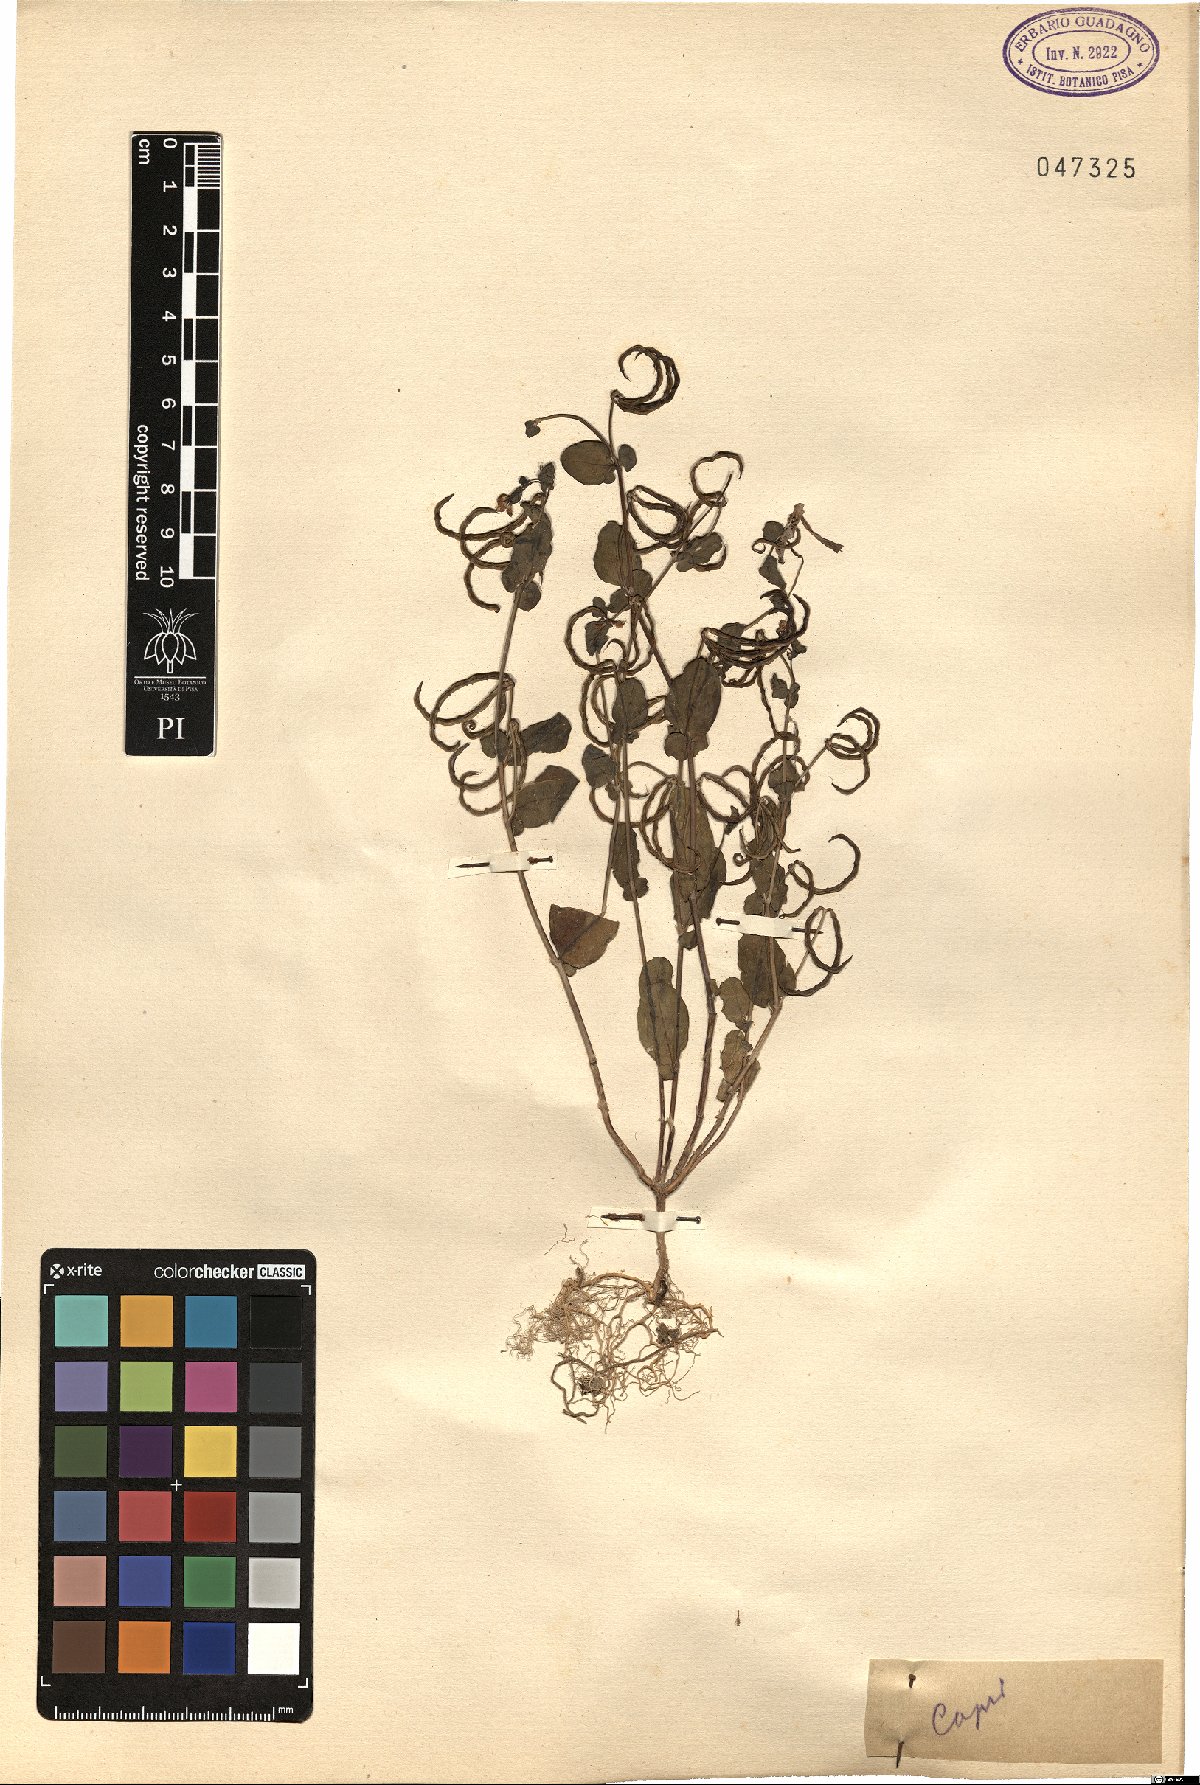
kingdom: Plantae
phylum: Tracheophyta
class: Magnoliopsida
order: Fabales
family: Fabaceae
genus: Coronilla
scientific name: Coronilla
